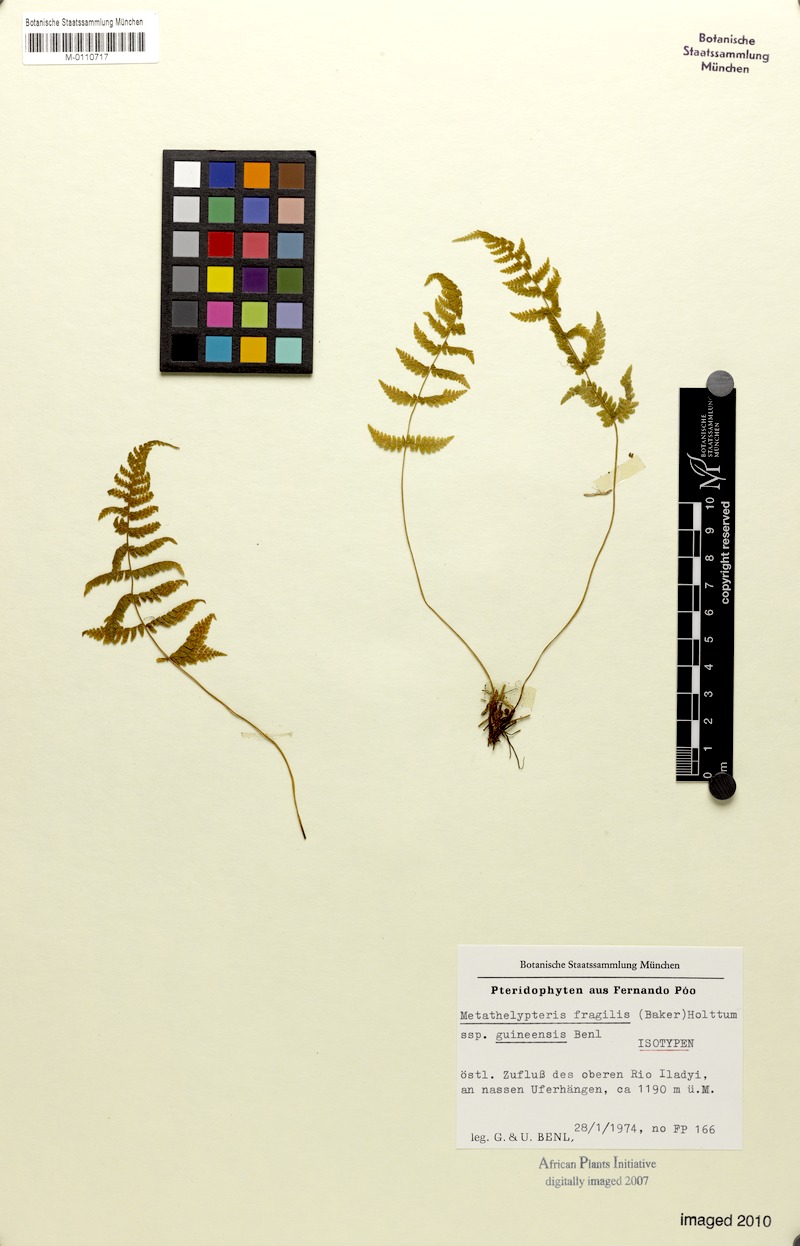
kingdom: Plantae
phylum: Tracheophyta
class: Polypodiopsida
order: Polypodiales
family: Thelypteridaceae
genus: Metathelypteris
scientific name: Metathelypteris fragilis
